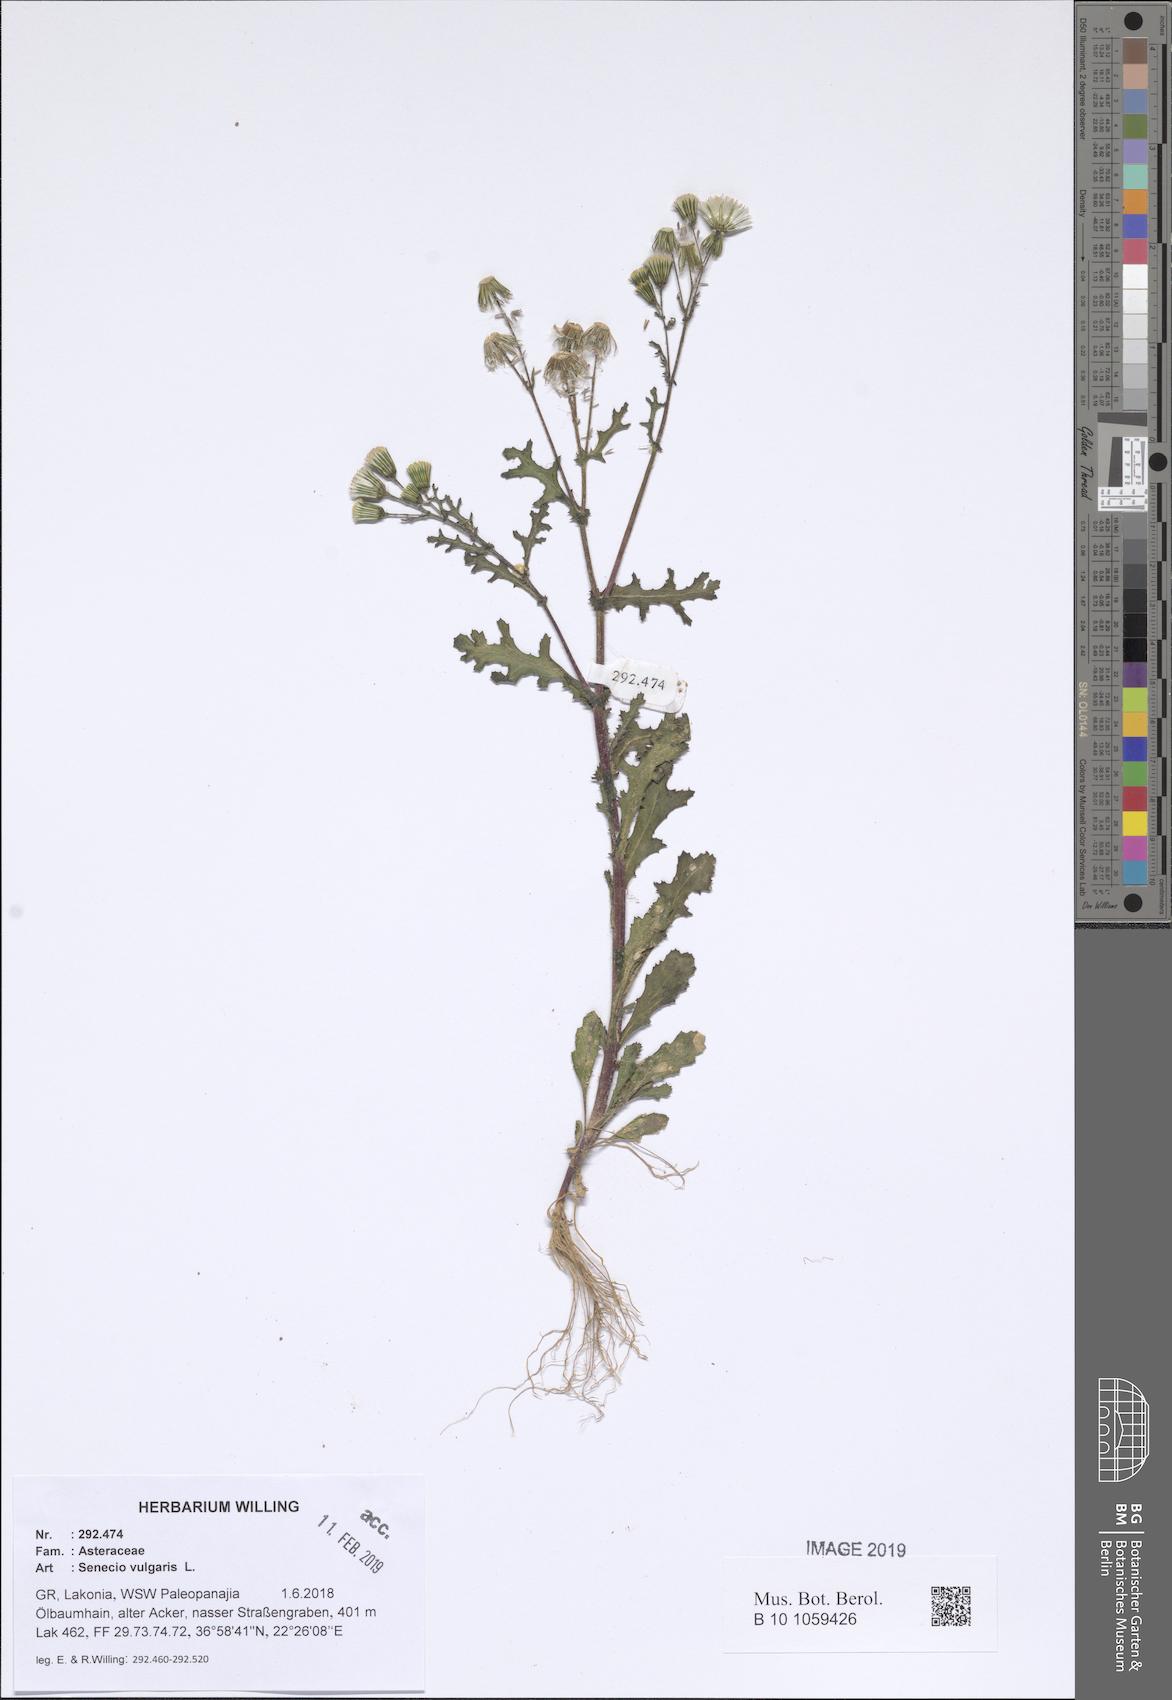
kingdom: Plantae
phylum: Tracheophyta
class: Magnoliopsida
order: Asterales
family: Asteraceae
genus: Senecio
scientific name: Senecio vulgaris
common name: Old-man-in-the-spring
